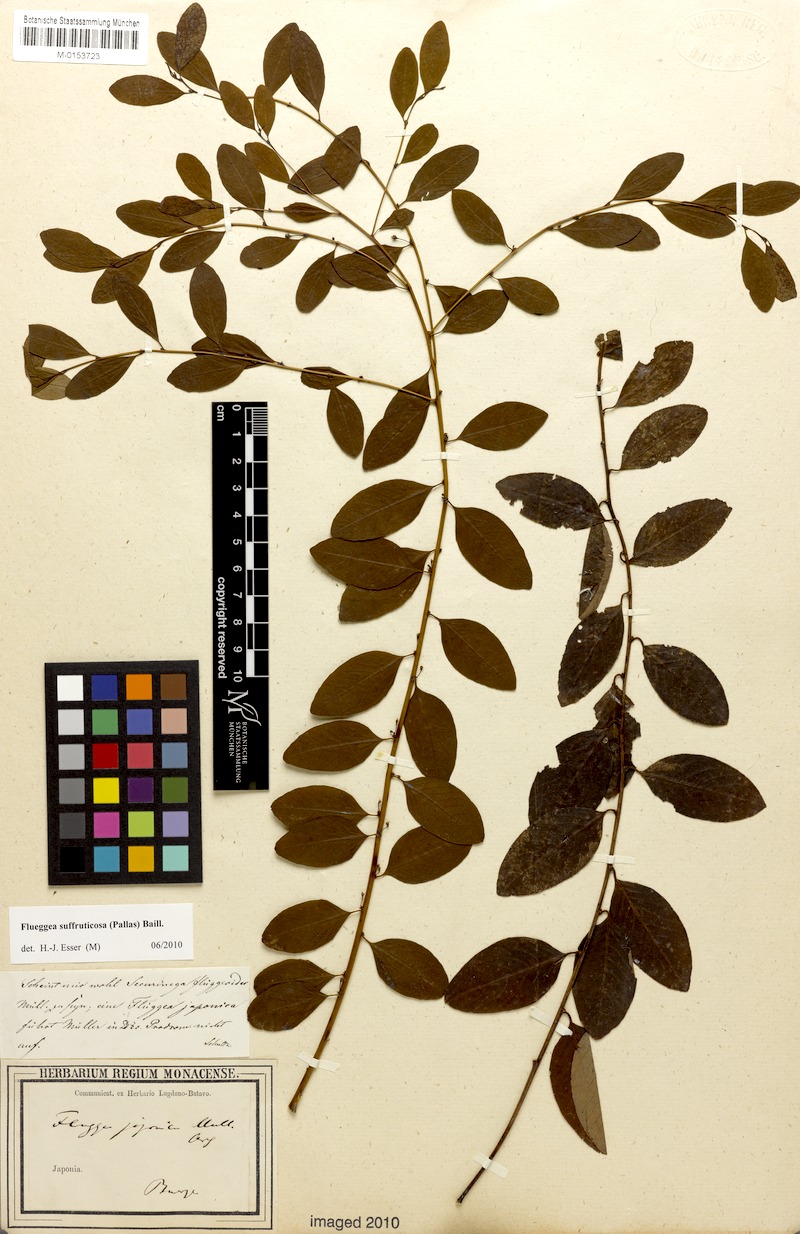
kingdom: Plantae
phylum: Tracheophyta
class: Magnoliopsida
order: Malpighiales
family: Phyllanthaceae
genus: Flueggea
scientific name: Flueggea suffruticosa
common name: Arching bushweed
